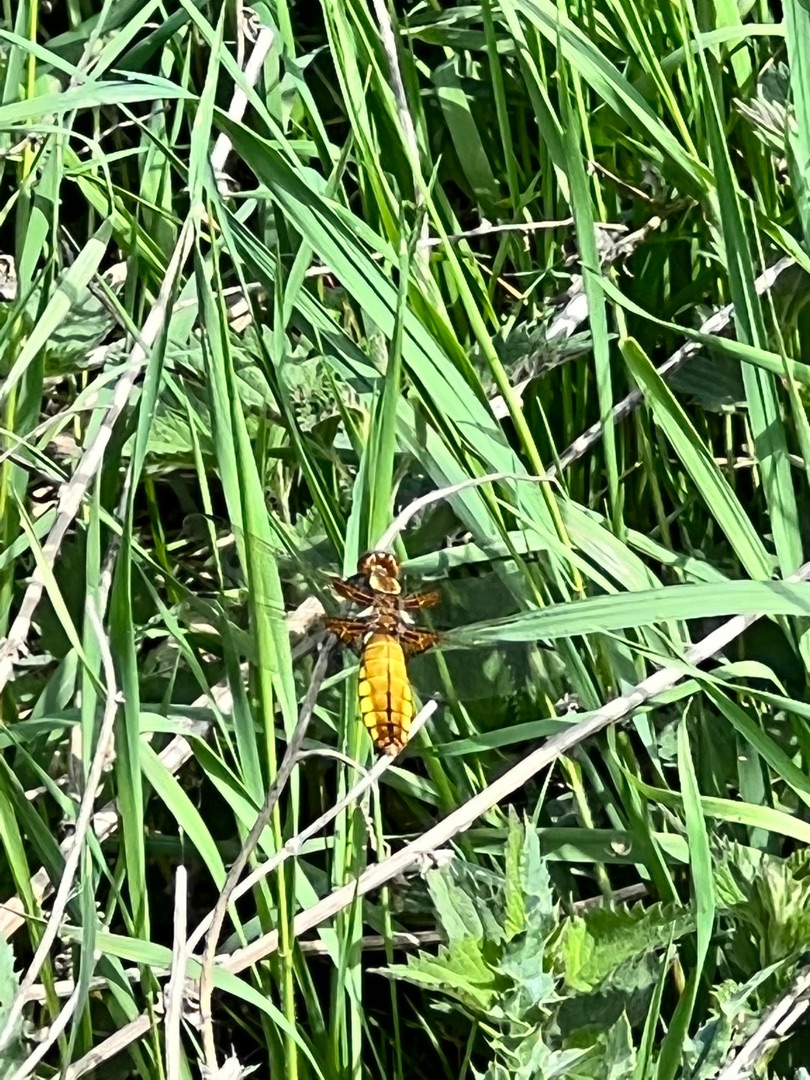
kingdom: Animalia
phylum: Arthropoda
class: Insecta
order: Odonata
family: Libellulidae
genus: Libellula
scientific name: Libellula depressa
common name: Blå libel
